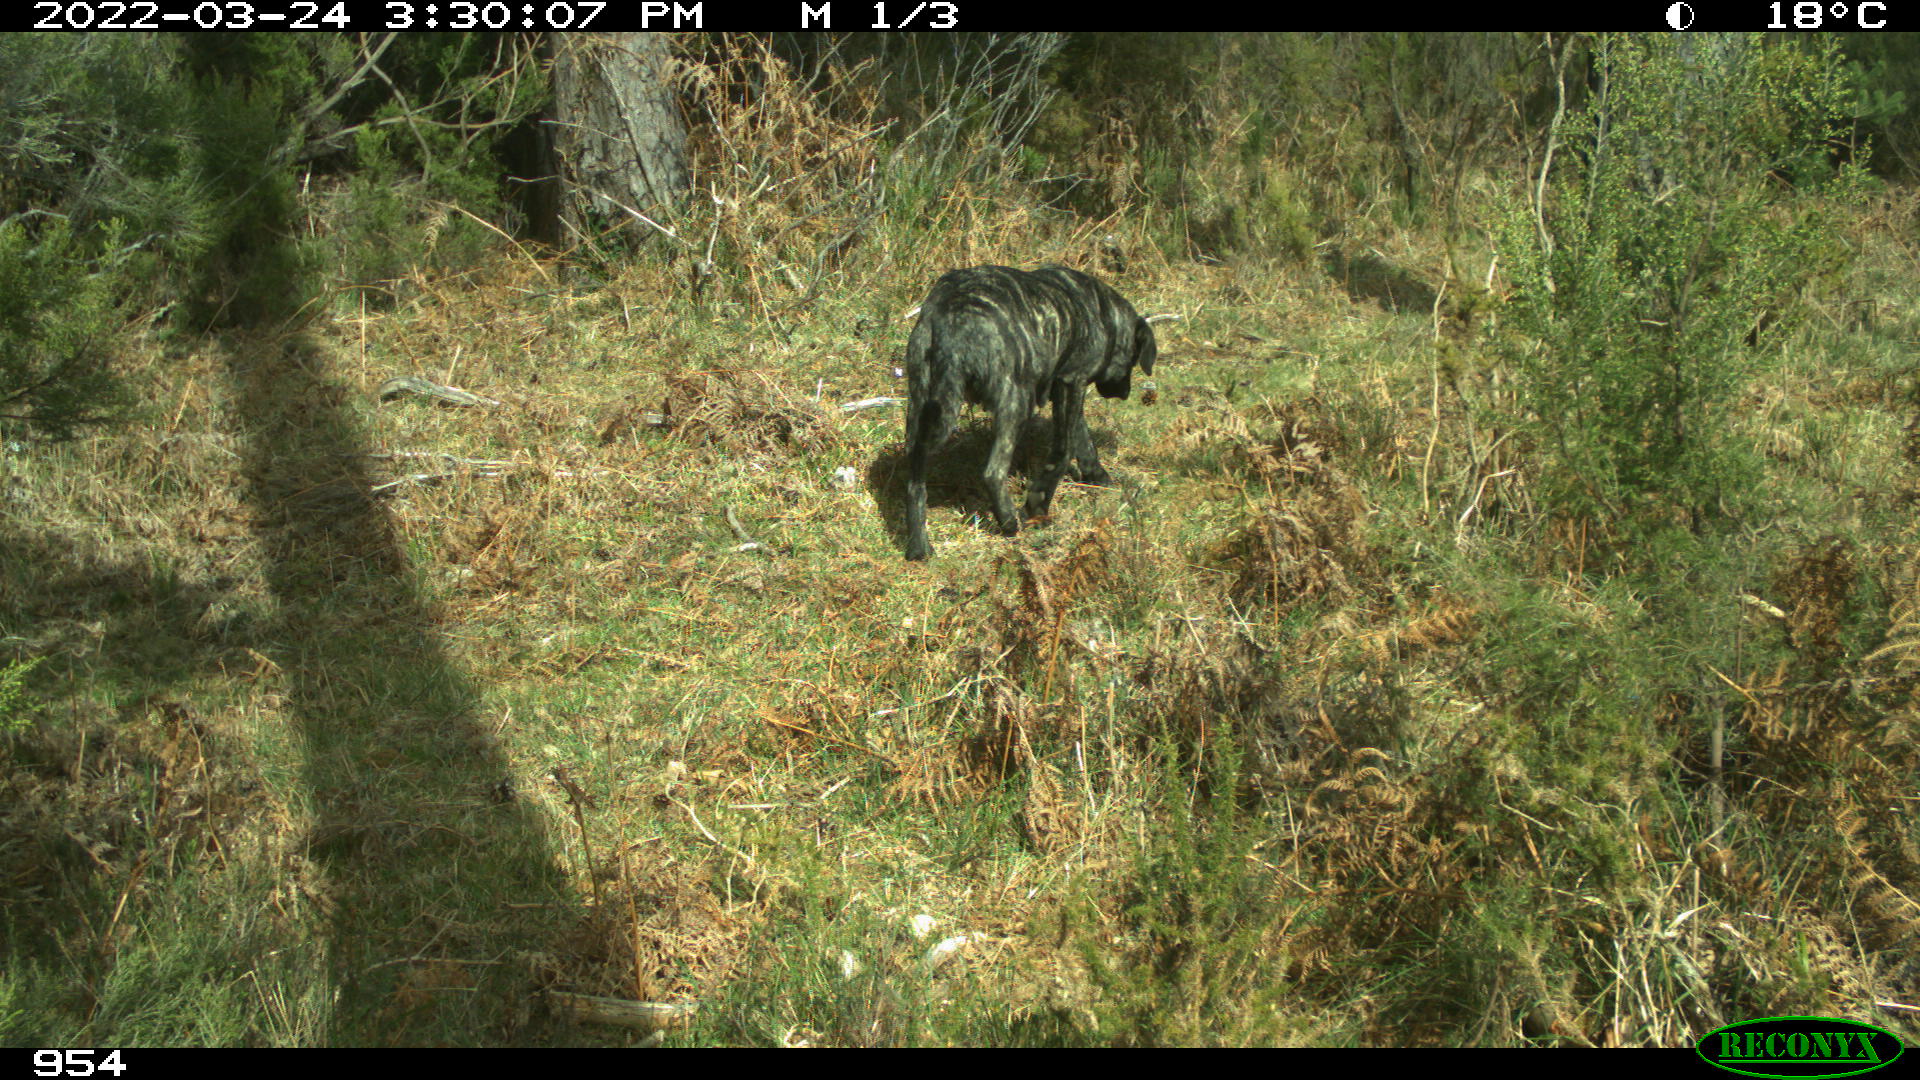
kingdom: Animalia
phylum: Chordata
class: Mammalia
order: Artiodactyla
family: Bovidae
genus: Bos
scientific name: Bos taurus
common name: Domesticated cattle
